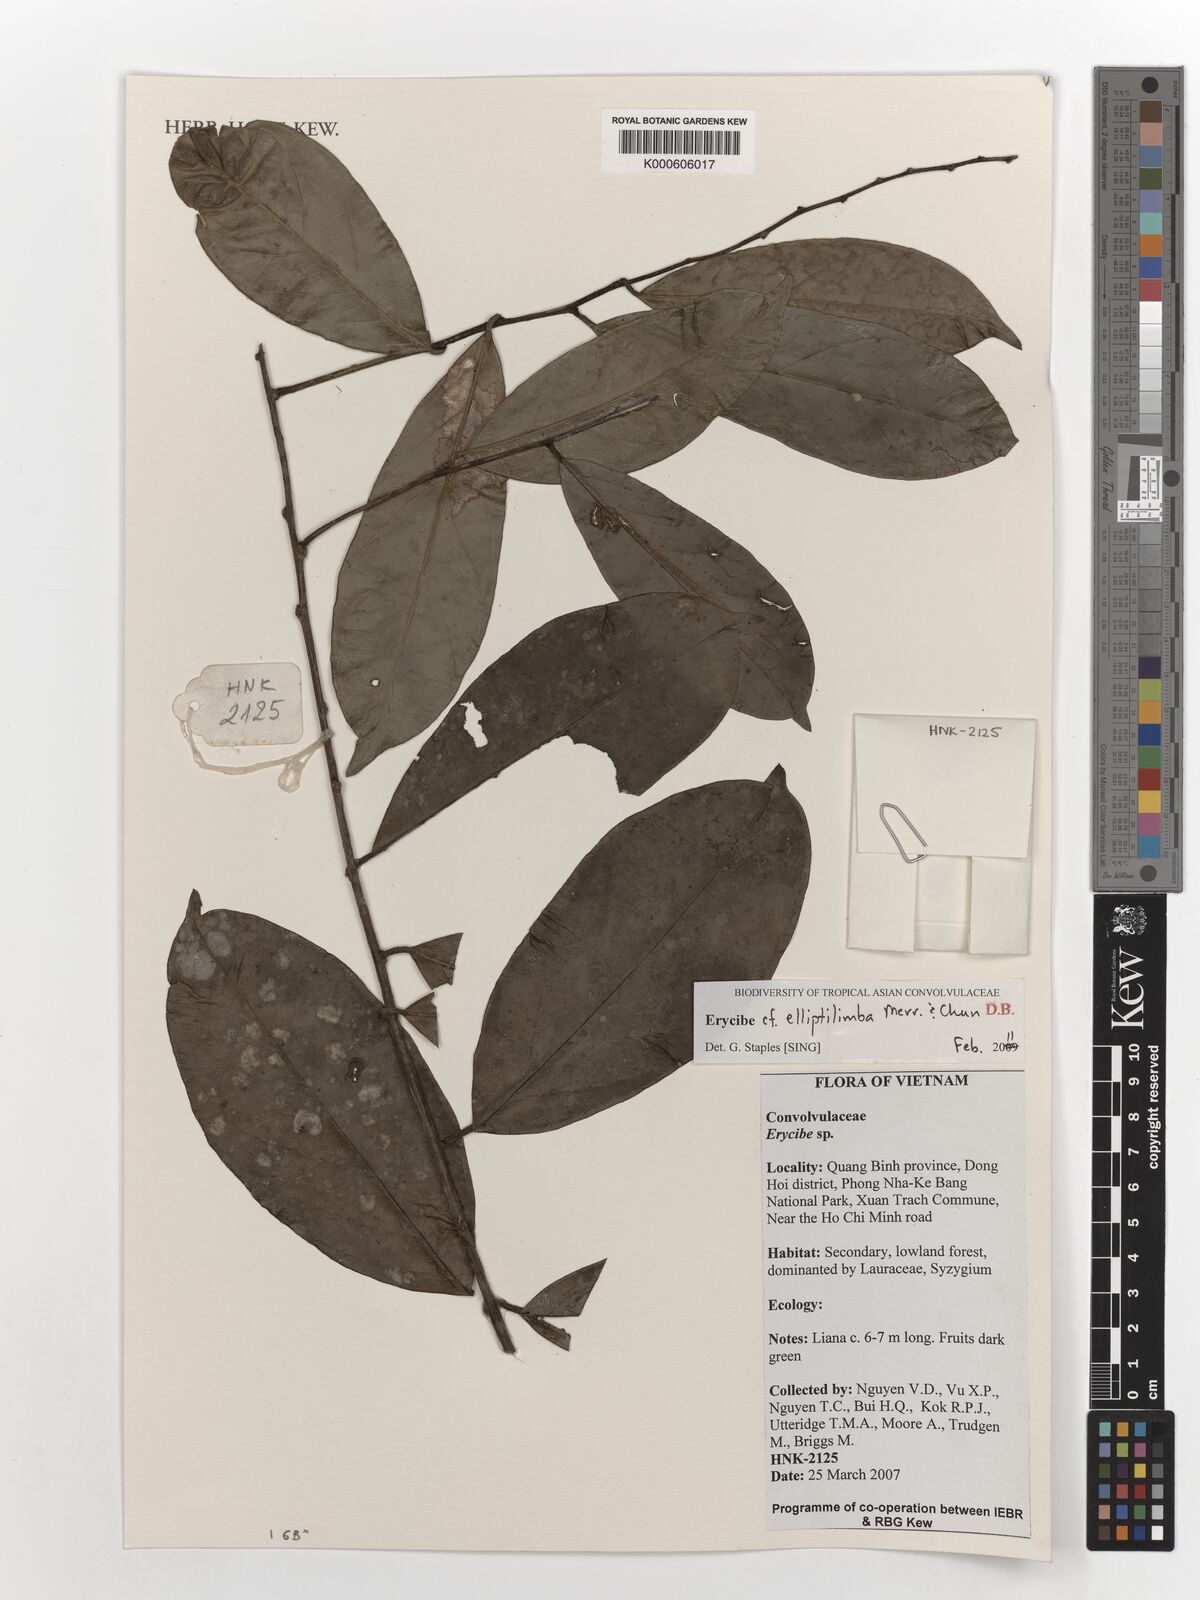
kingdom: Plantae
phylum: Tracheophyta
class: Magnoliopsida
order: Solanales
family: Convolvulaceae
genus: Erycibe
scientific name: Erycibe elliptilimba
